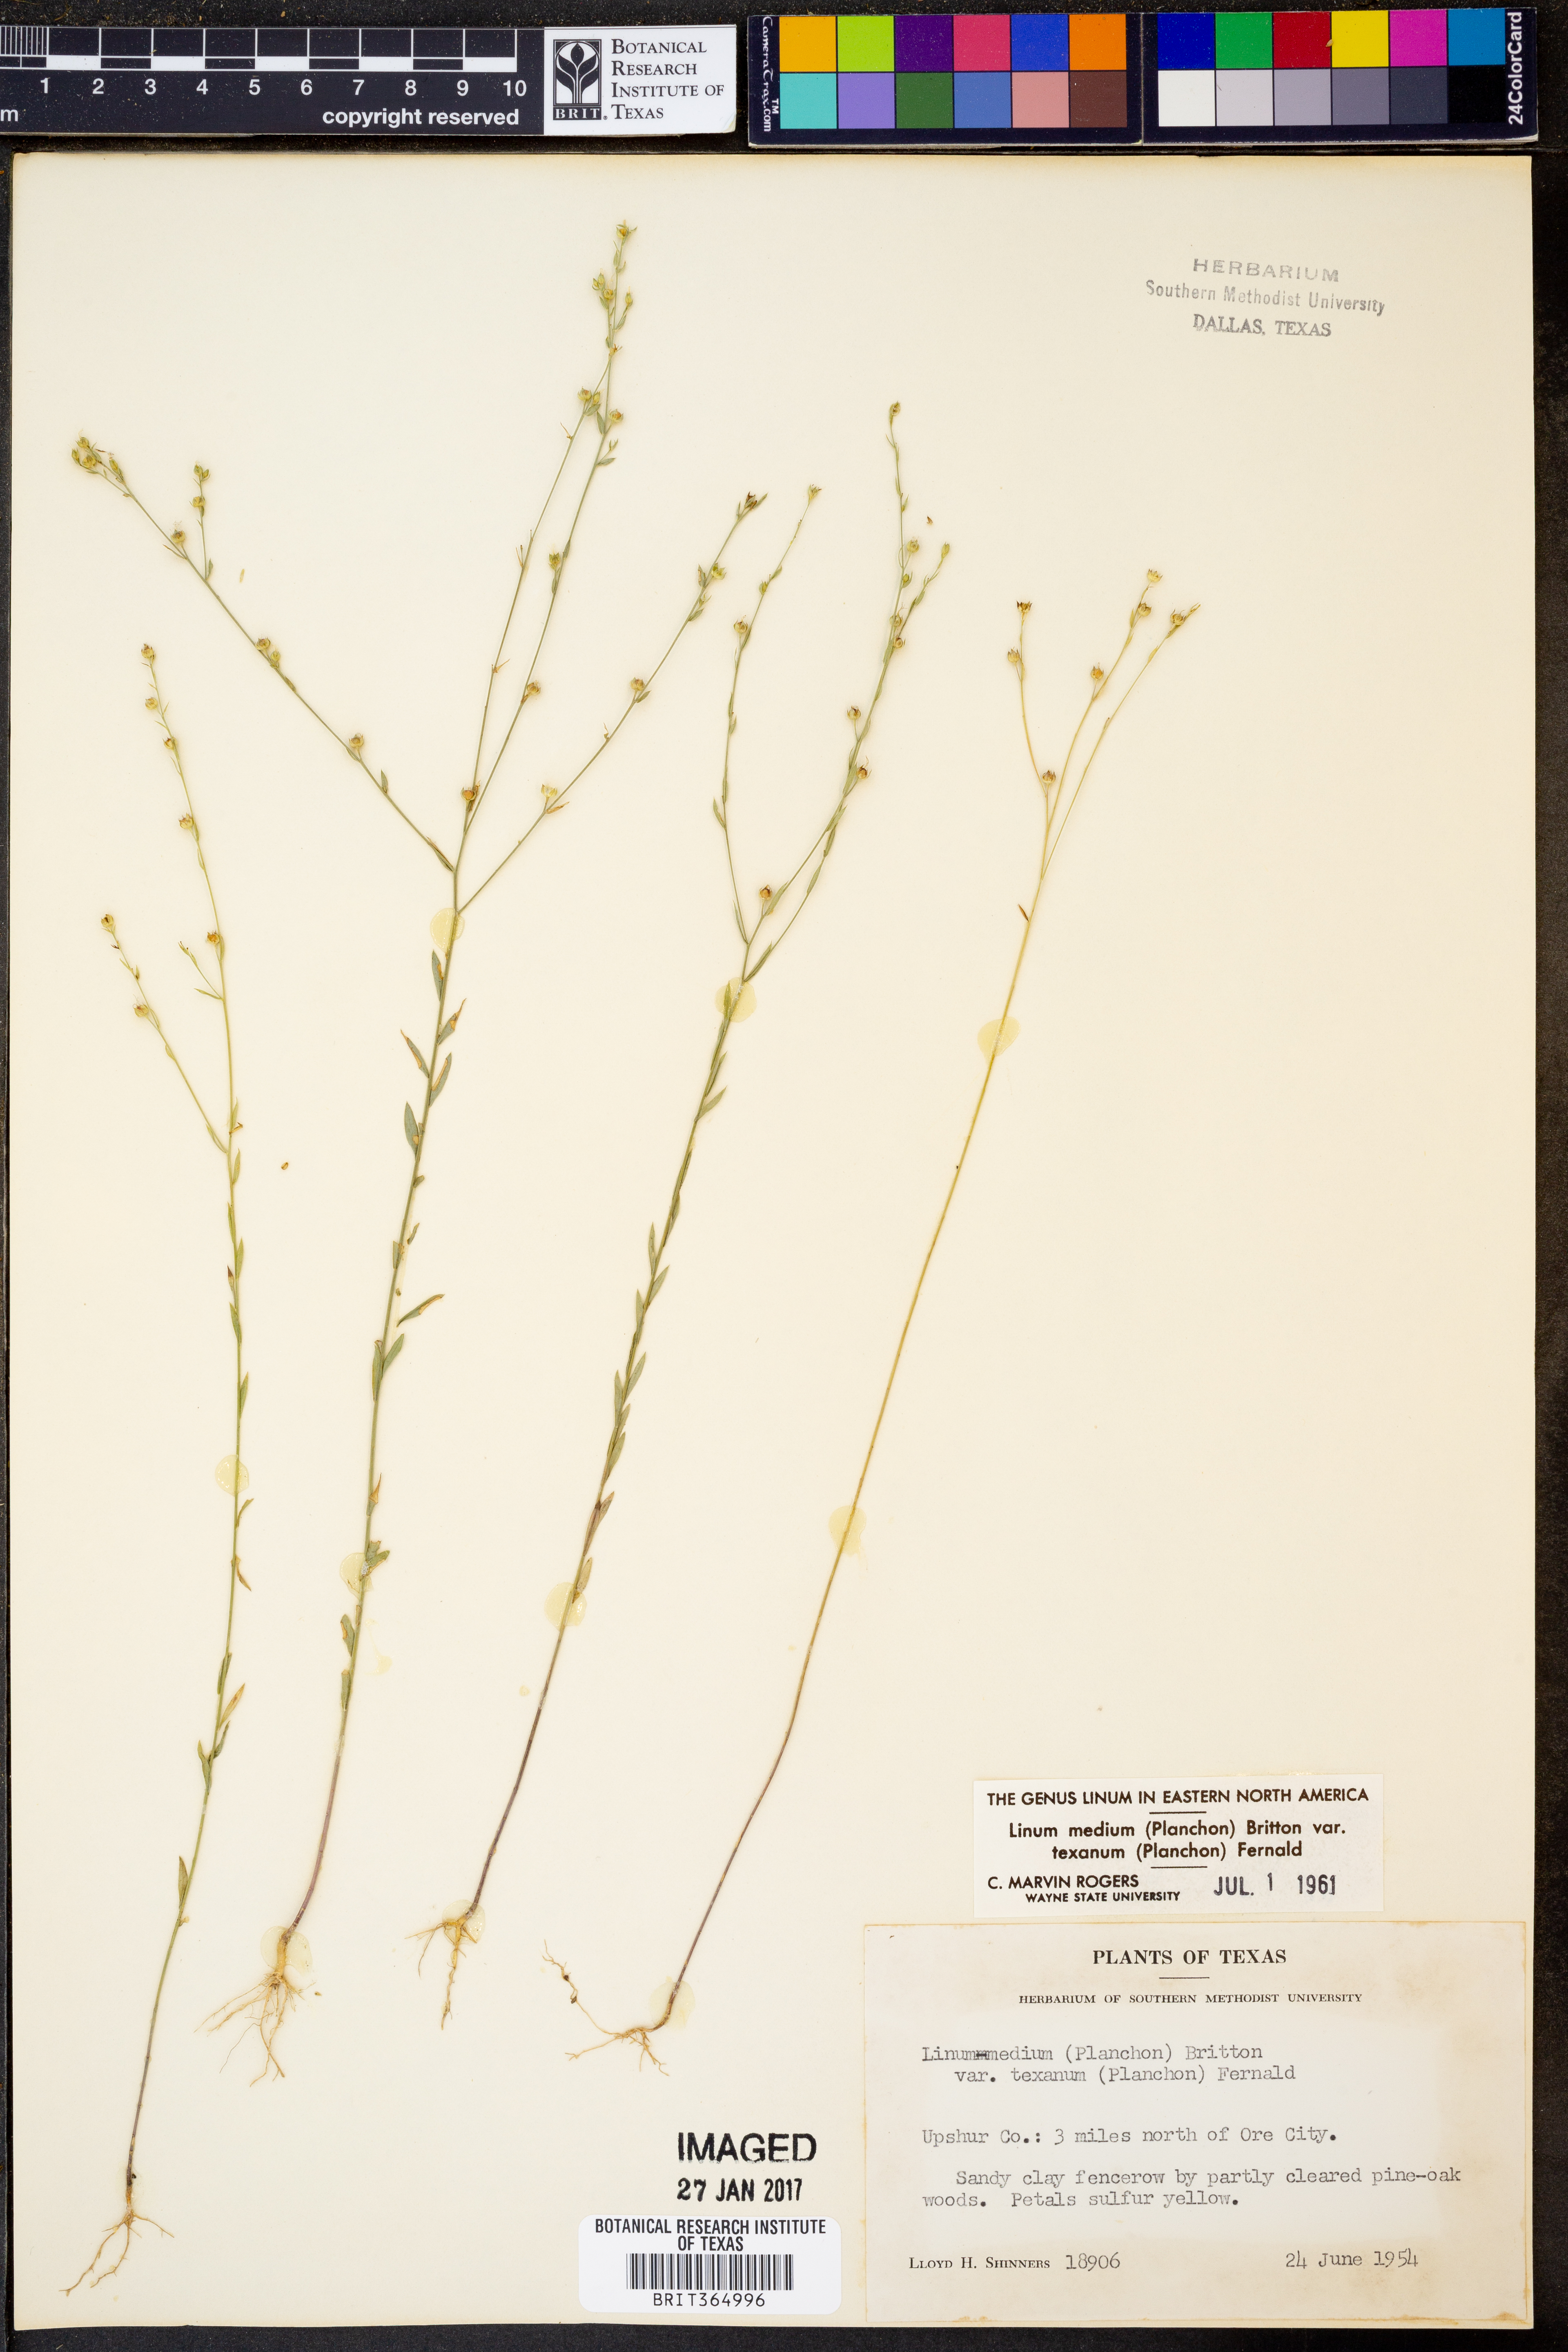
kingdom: Plantae
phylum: Tracheophyta
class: Magnoliopsida
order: Malpighiales
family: Linaceae
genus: Linum
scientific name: Linum medium
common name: Stiff yellow flax
